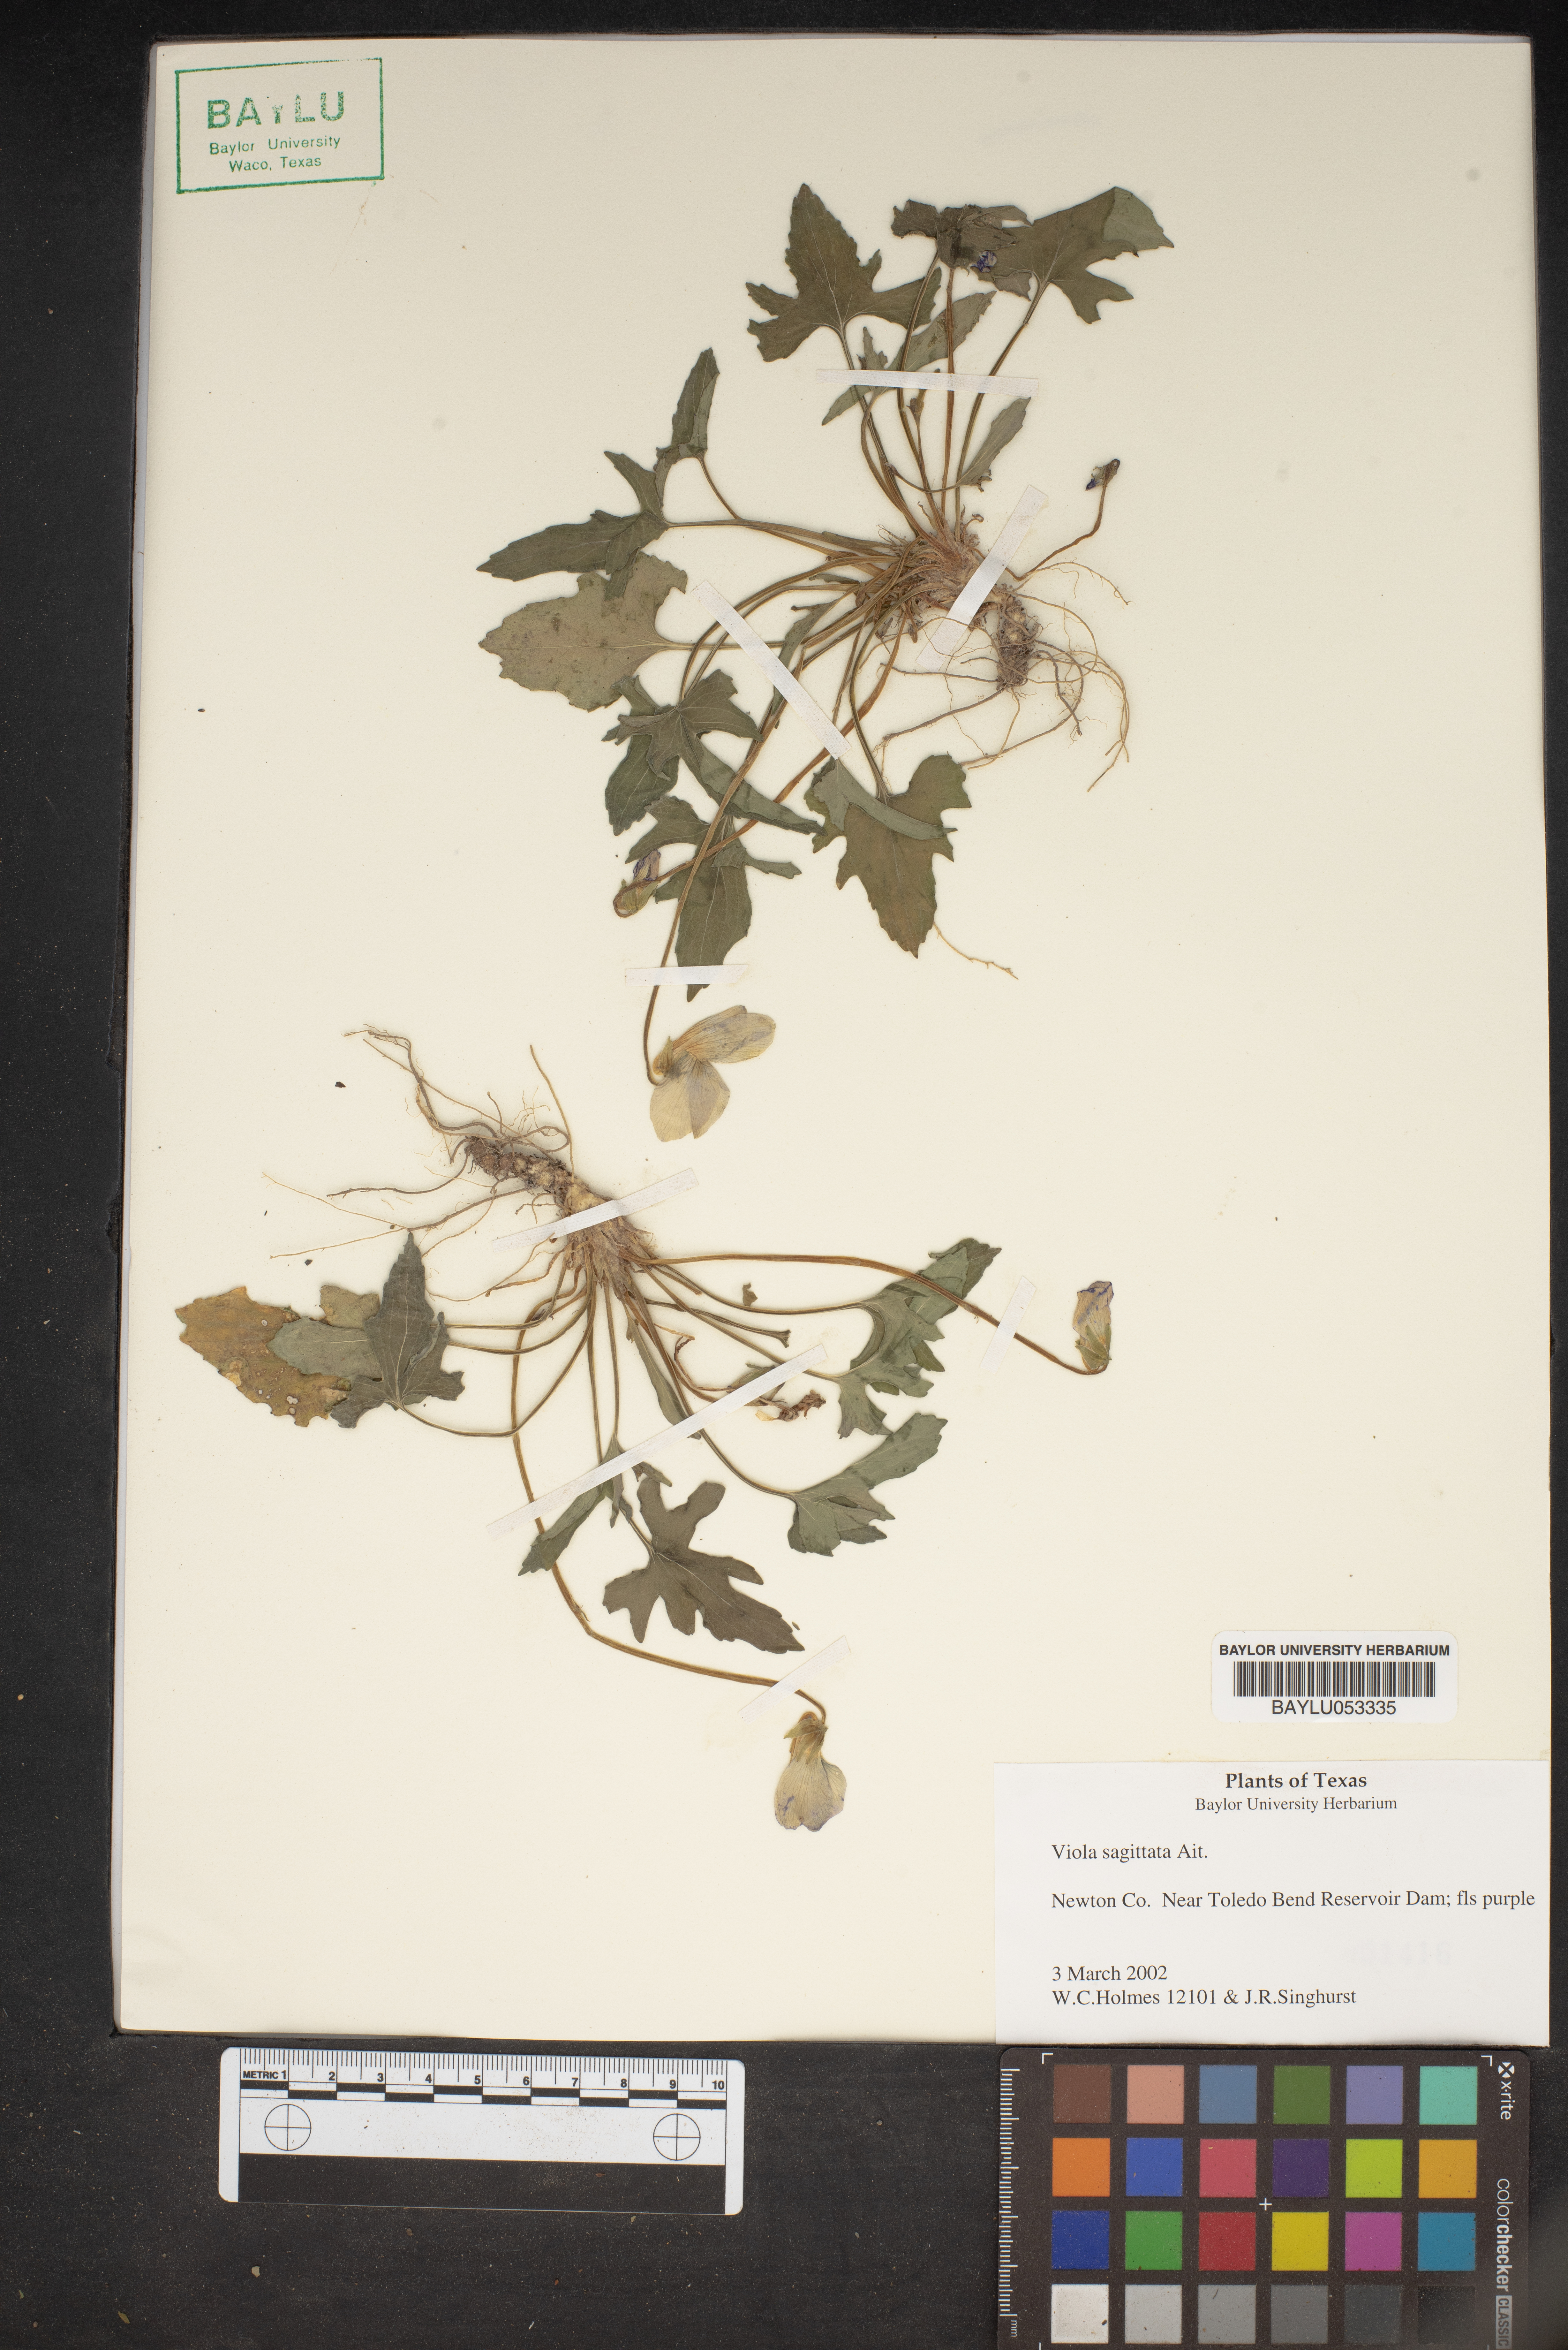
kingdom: Plantae
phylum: Tracheophyta
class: Magnoliopsida
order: Malpighiales
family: Violaceae
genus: Viola
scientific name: Viola sagittata
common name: Arrowhead violet
